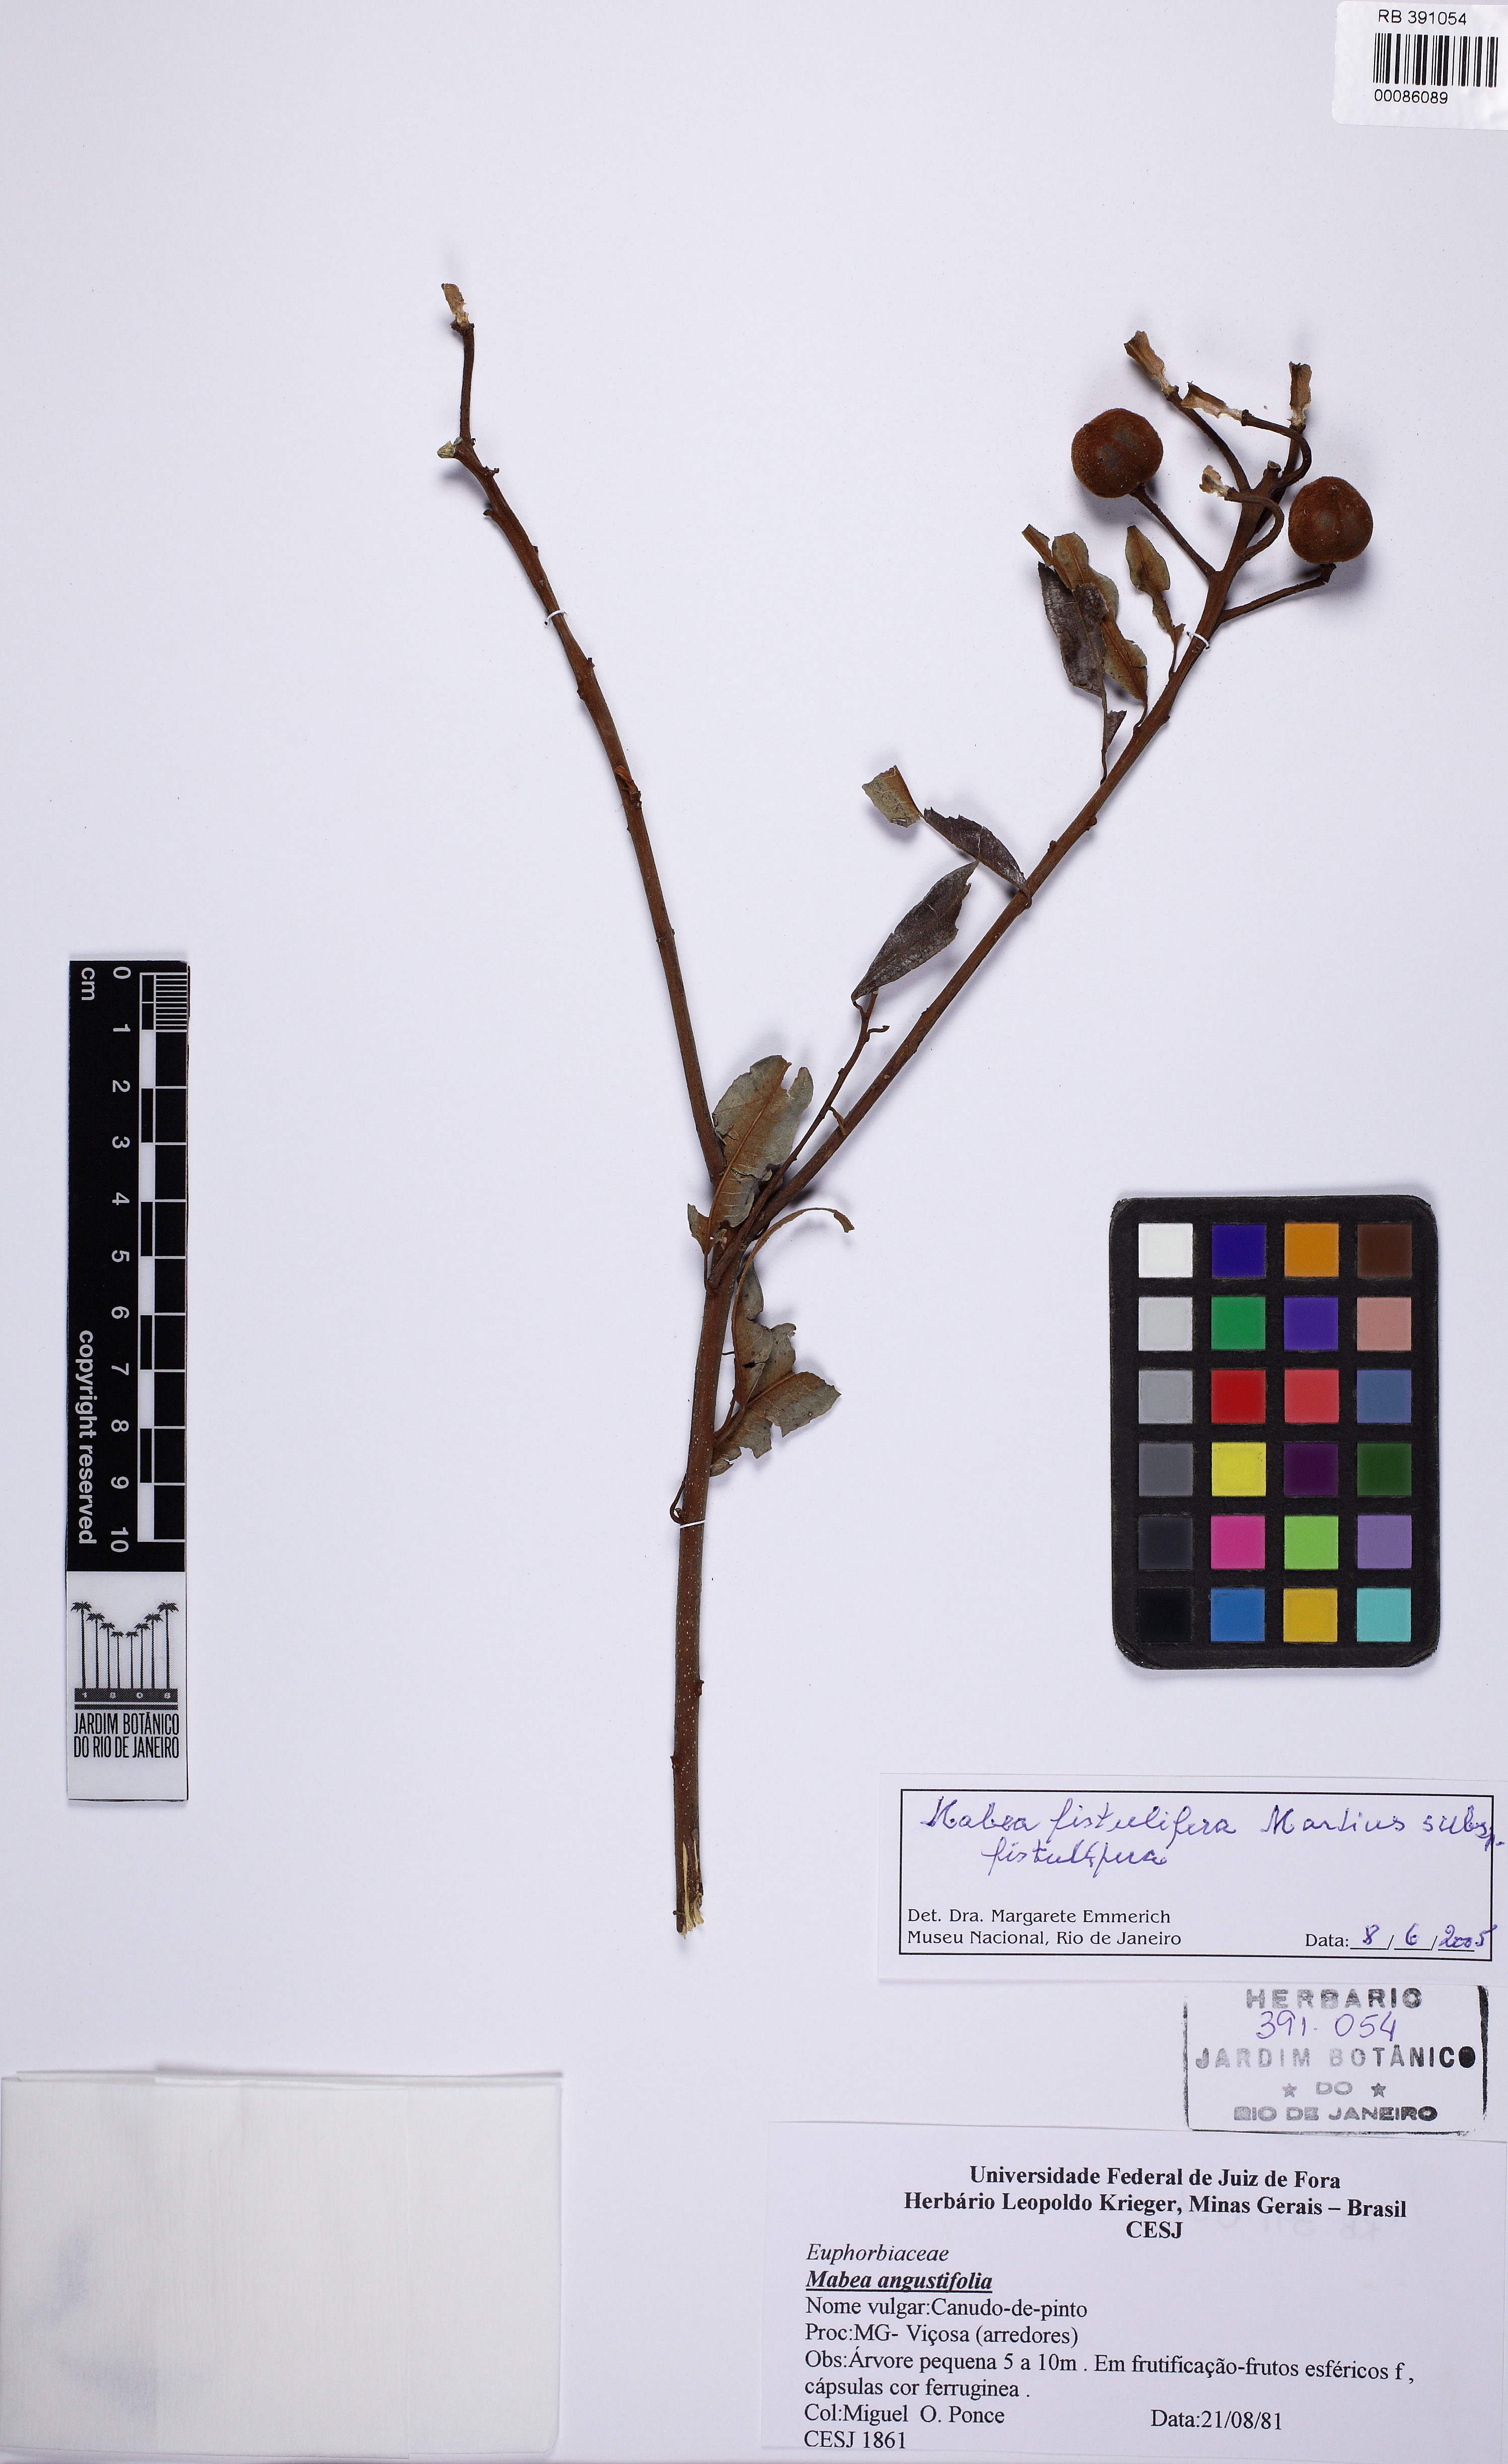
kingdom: Plantae
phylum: Tracheophyta
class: Magnoliopsida
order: Malpighiales
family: Euphorbiaceae
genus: Mabea
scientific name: Mabea fistulifera
